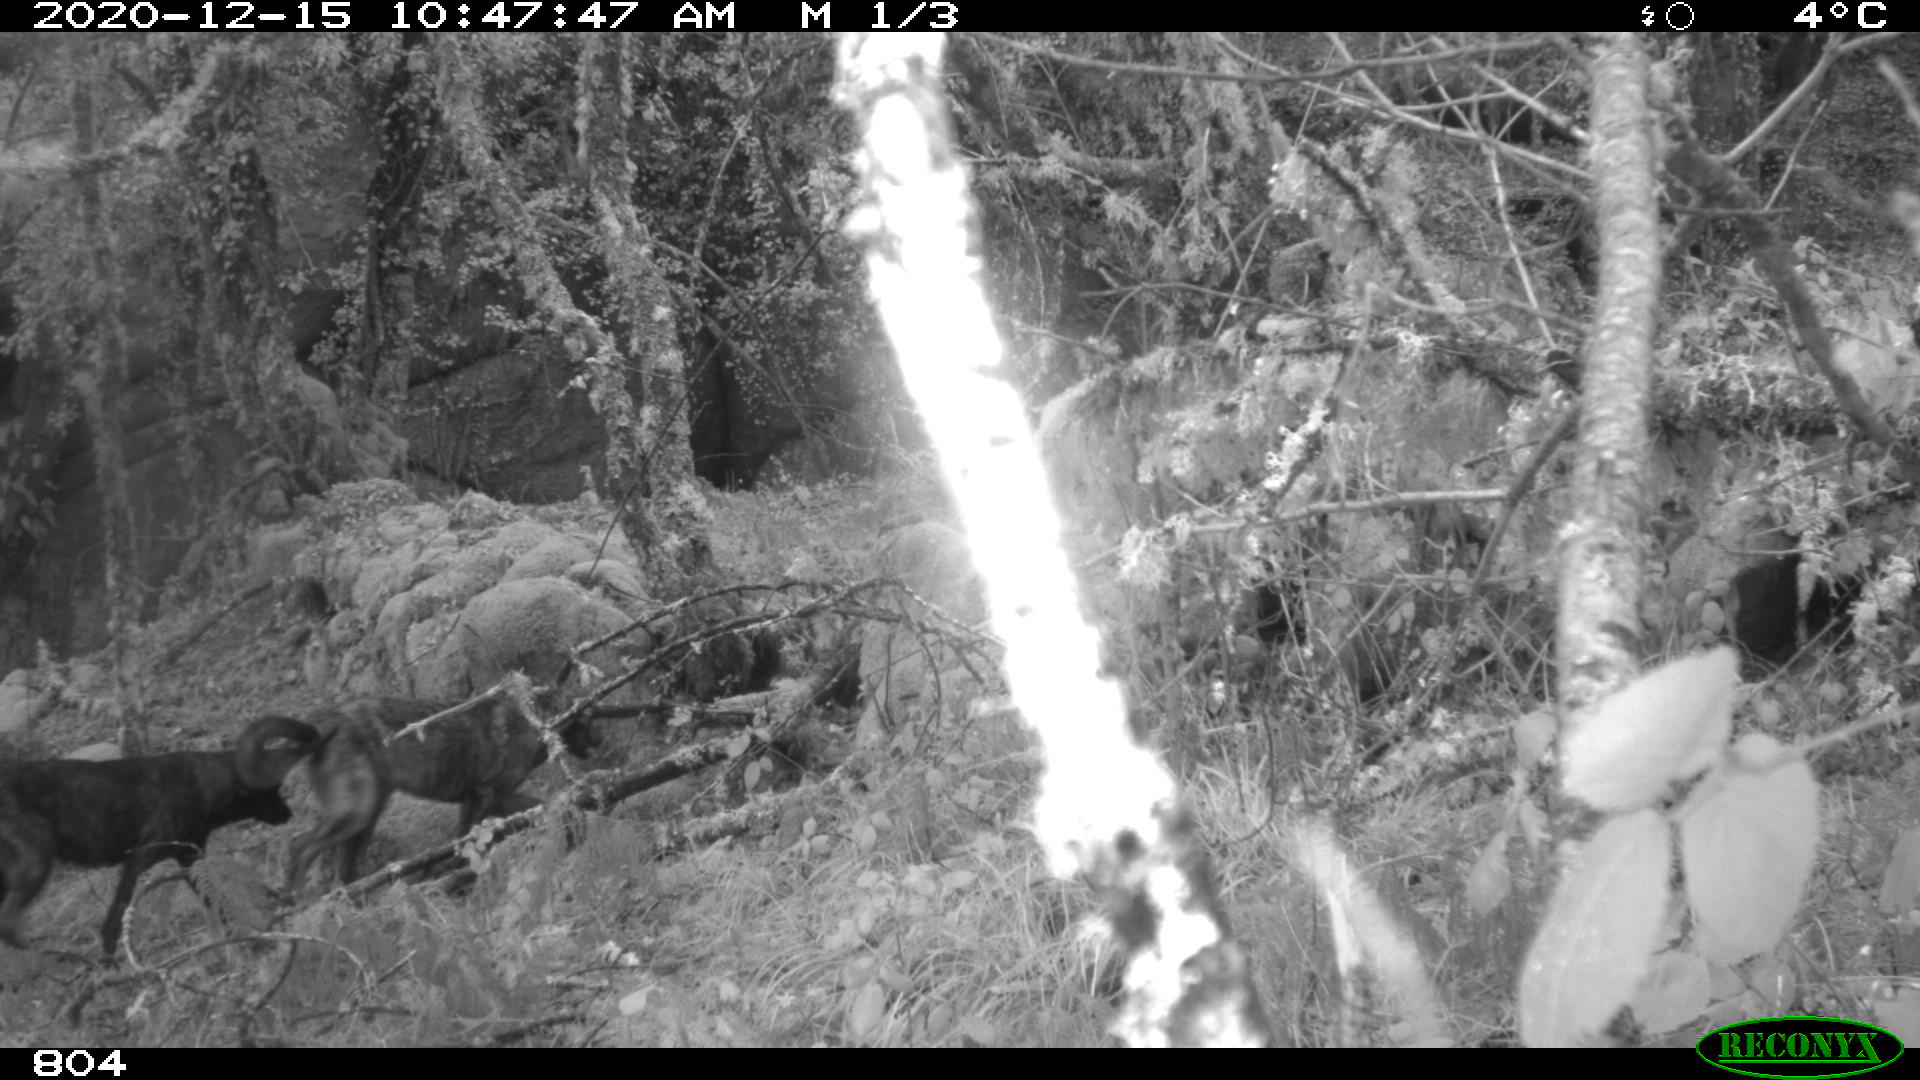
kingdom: Animalia
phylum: Chordata
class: Mammalia
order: Carnivora
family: Canidae
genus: Canis
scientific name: Canis lupus
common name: Gray wolf
